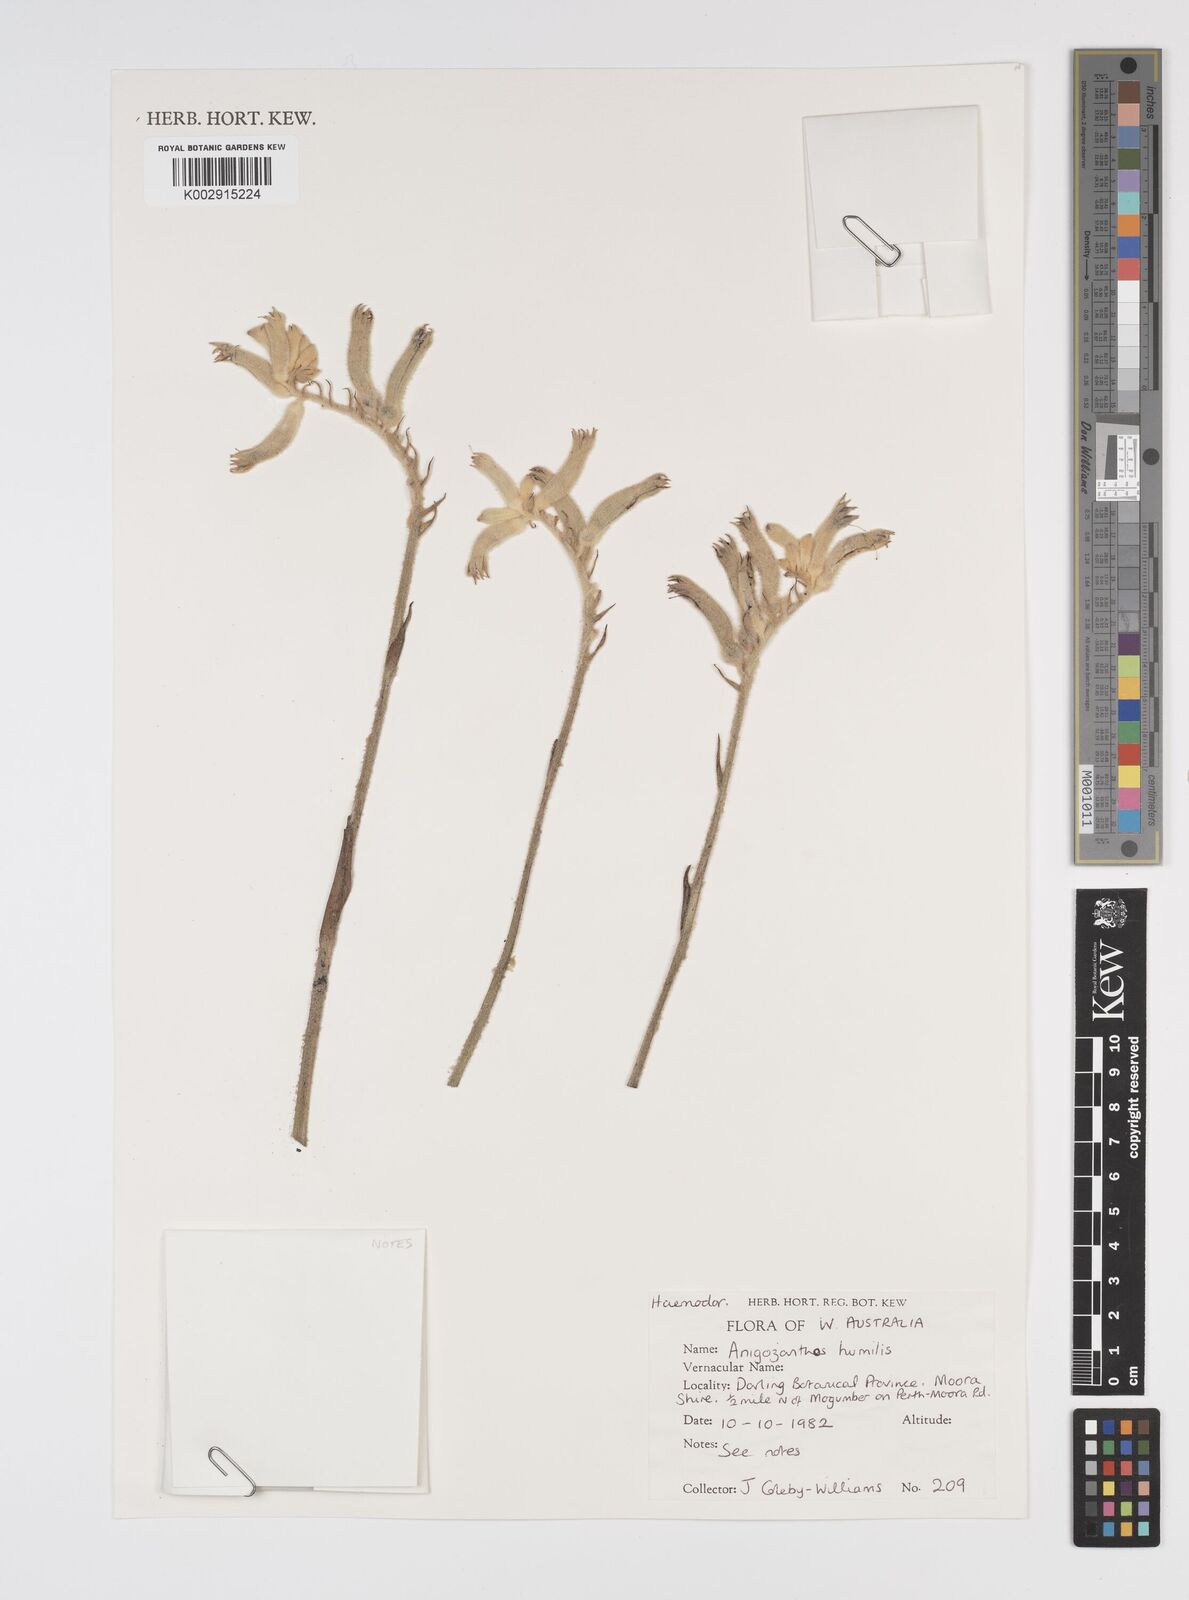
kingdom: Plantae
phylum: Tracheophyta
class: Liliopsida
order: Commelinales
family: Haemodoraceae
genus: Anigozanthos
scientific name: Anigozanthos humilis
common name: Cat's-paw
